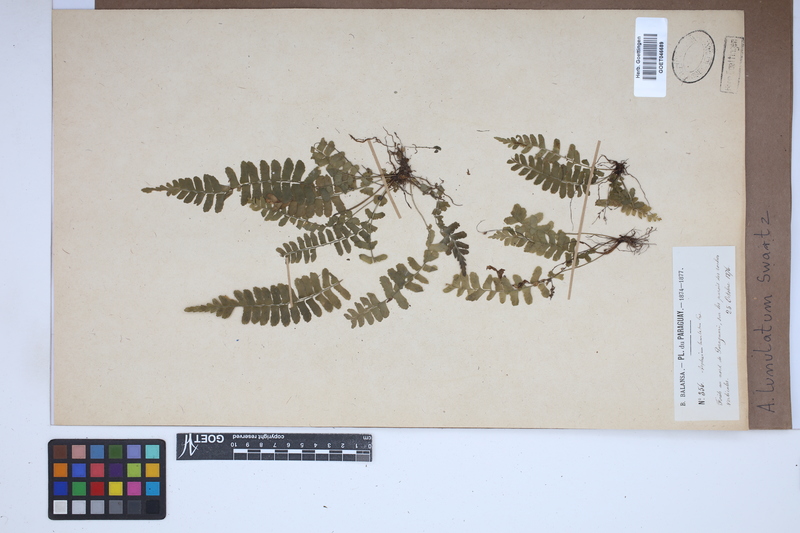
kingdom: Plantae
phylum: Tracheophyta
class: Polypodiopsida
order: Polypodiales
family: Aspleniaceae
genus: Asplenium
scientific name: Asplenium lunulatum
